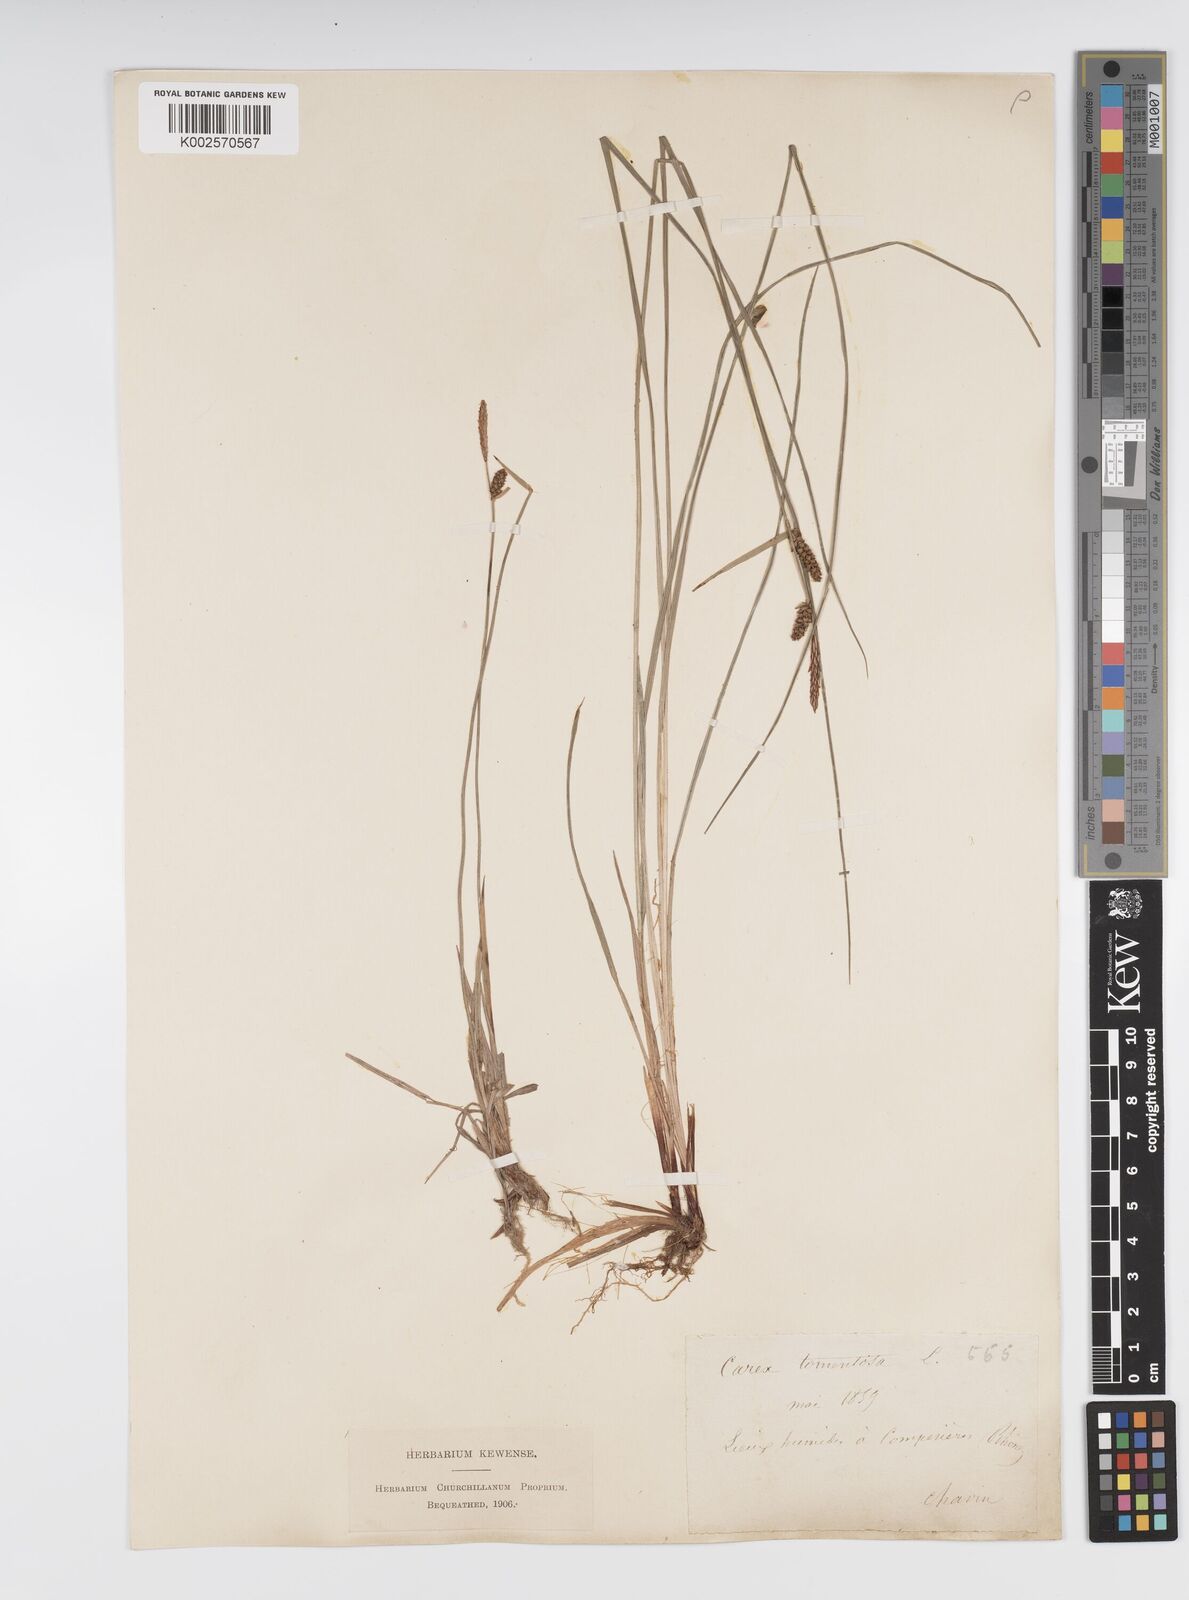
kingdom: Plantae
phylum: Tracheophyta
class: Liliopsida
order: Poales
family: Cyperaceae
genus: Carex
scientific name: Carex montana
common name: Soft-leaved sedge
